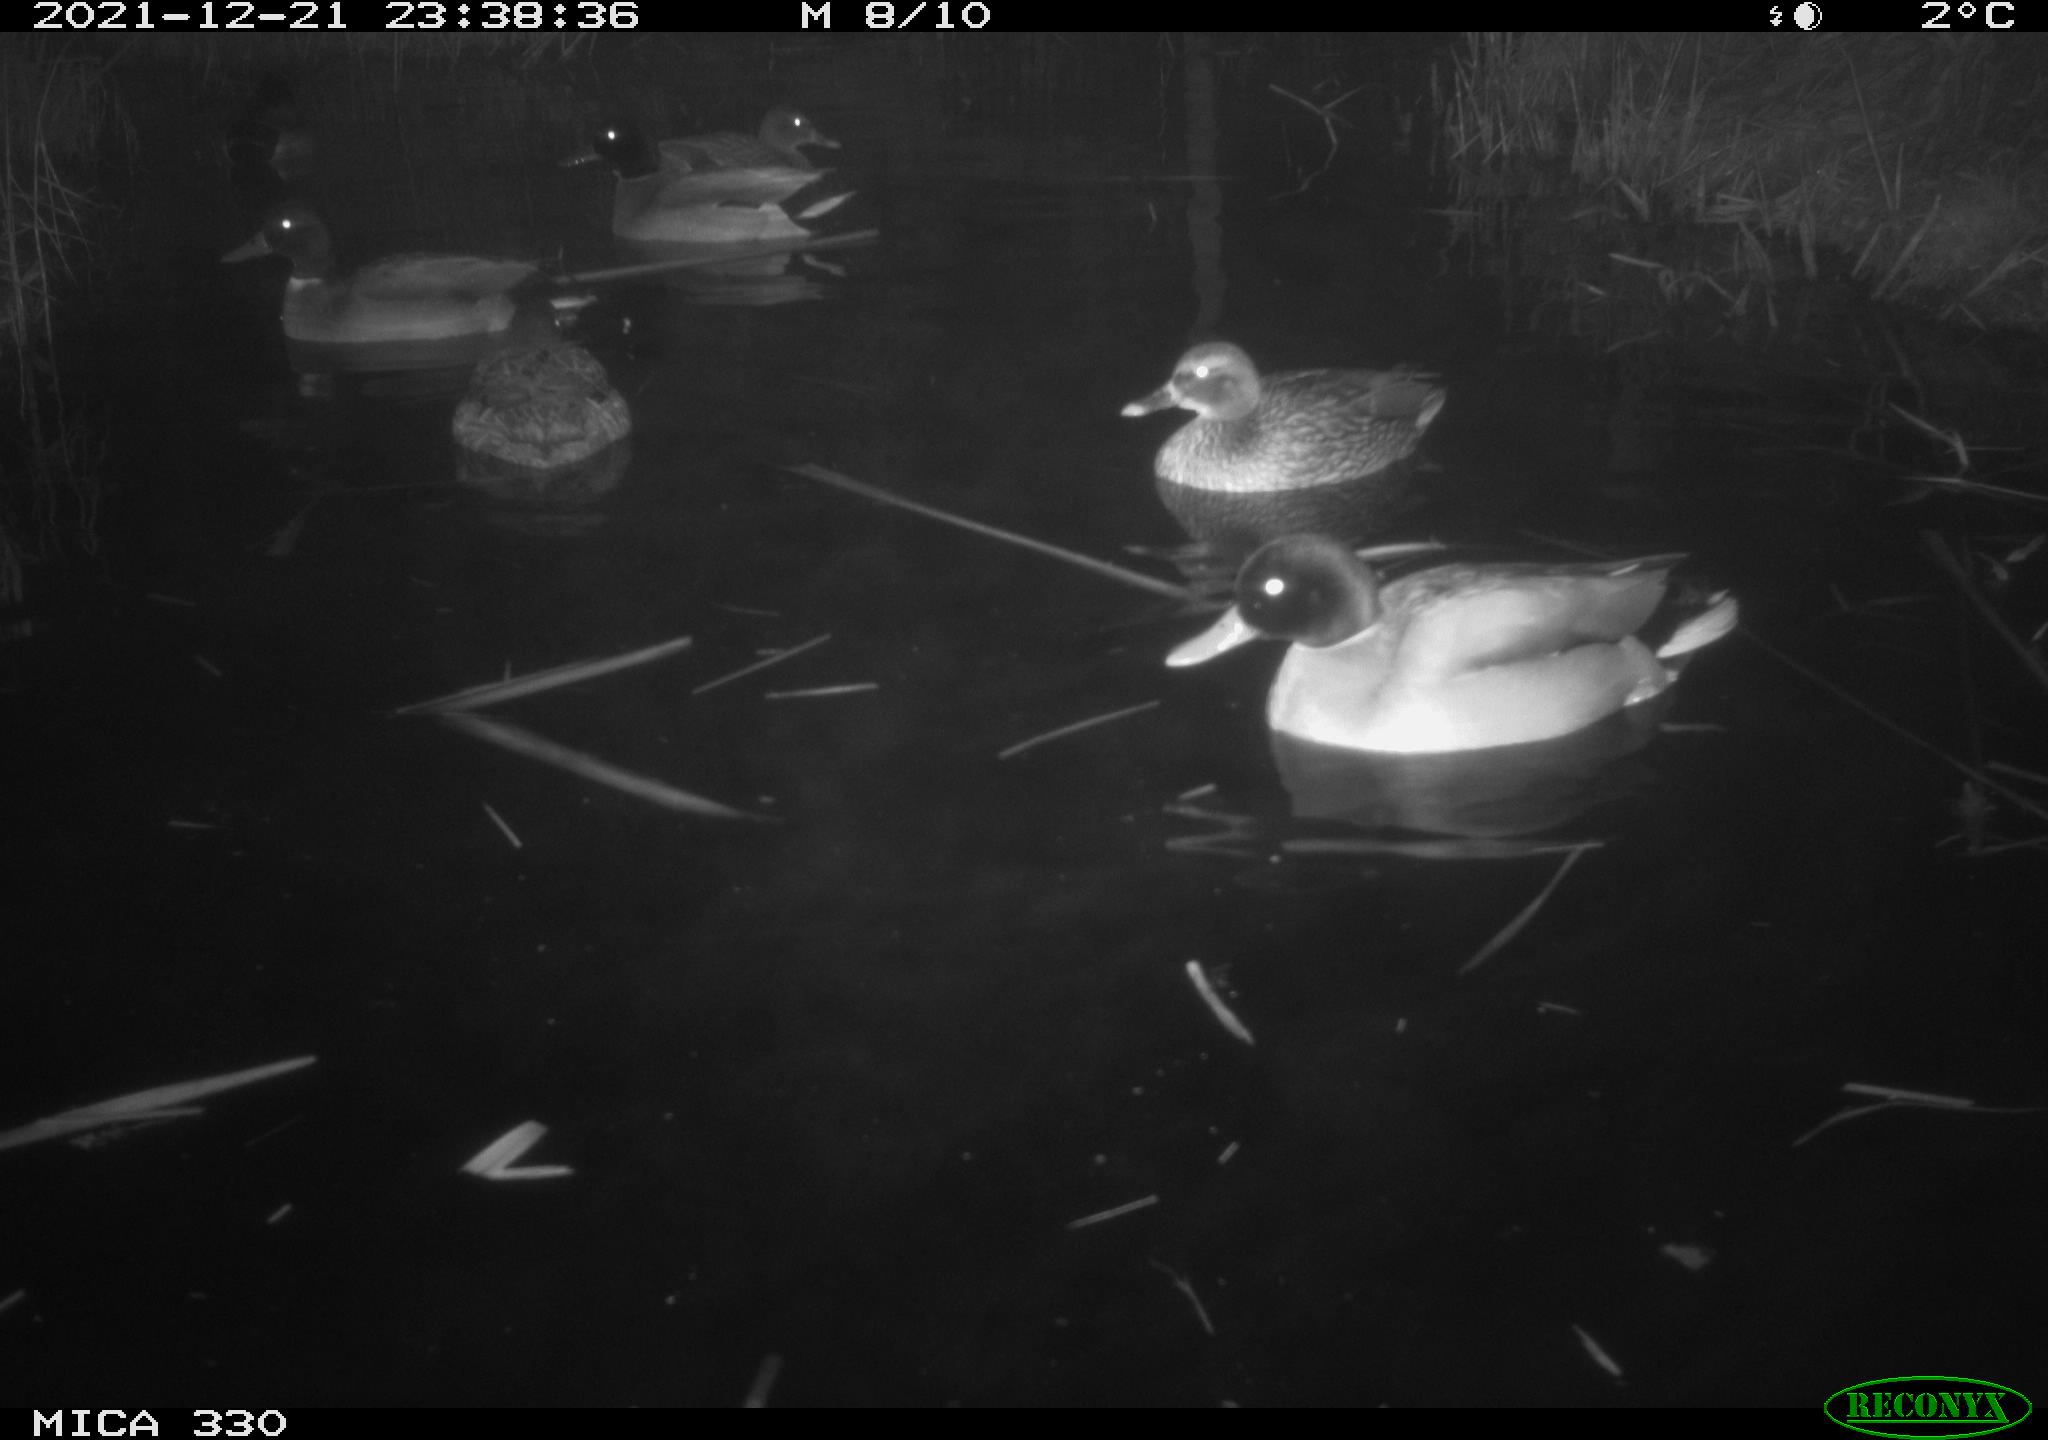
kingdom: Animalia
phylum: Chordata
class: Aves
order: Anseriformes
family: Anatidae
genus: Anas
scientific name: Anas platyrhynchos
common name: Mallard
